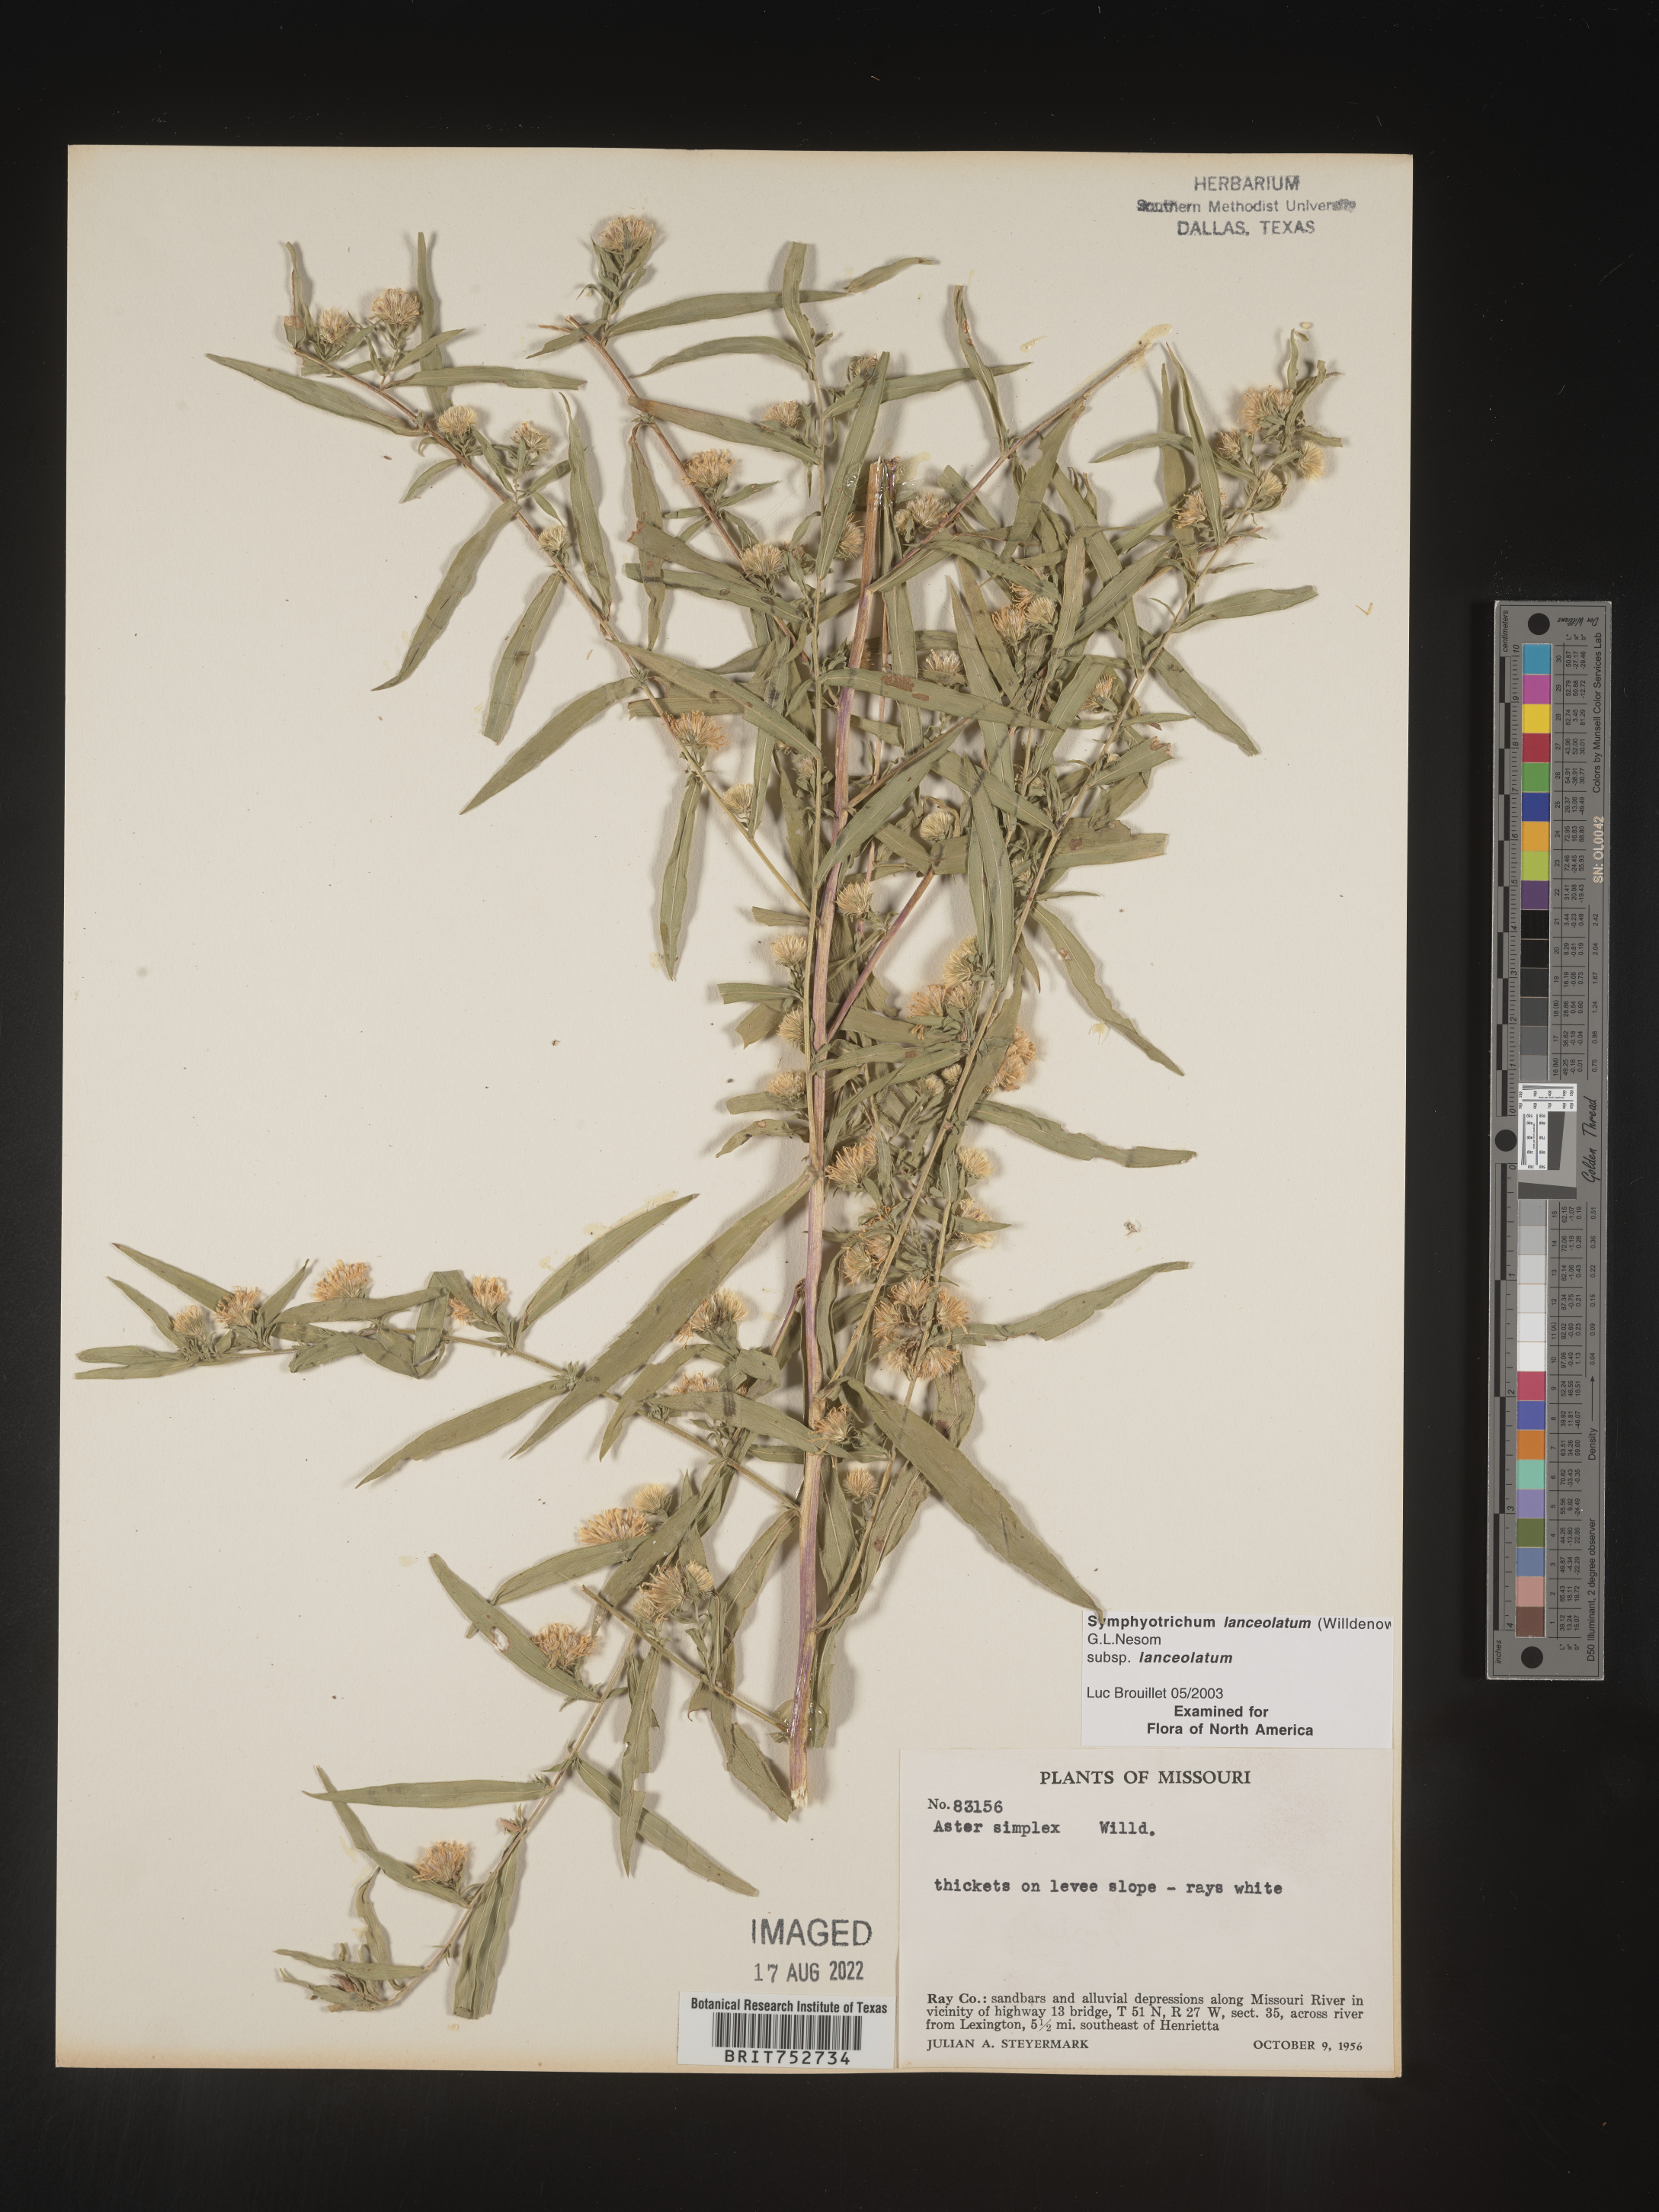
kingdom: Plantae
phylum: Tracheophyta
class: Magnoliopsida
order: Asterales
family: Asteraceae
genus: Symphyotrichum
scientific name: Symphyotrichum lanceolatum
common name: Panicled aster
